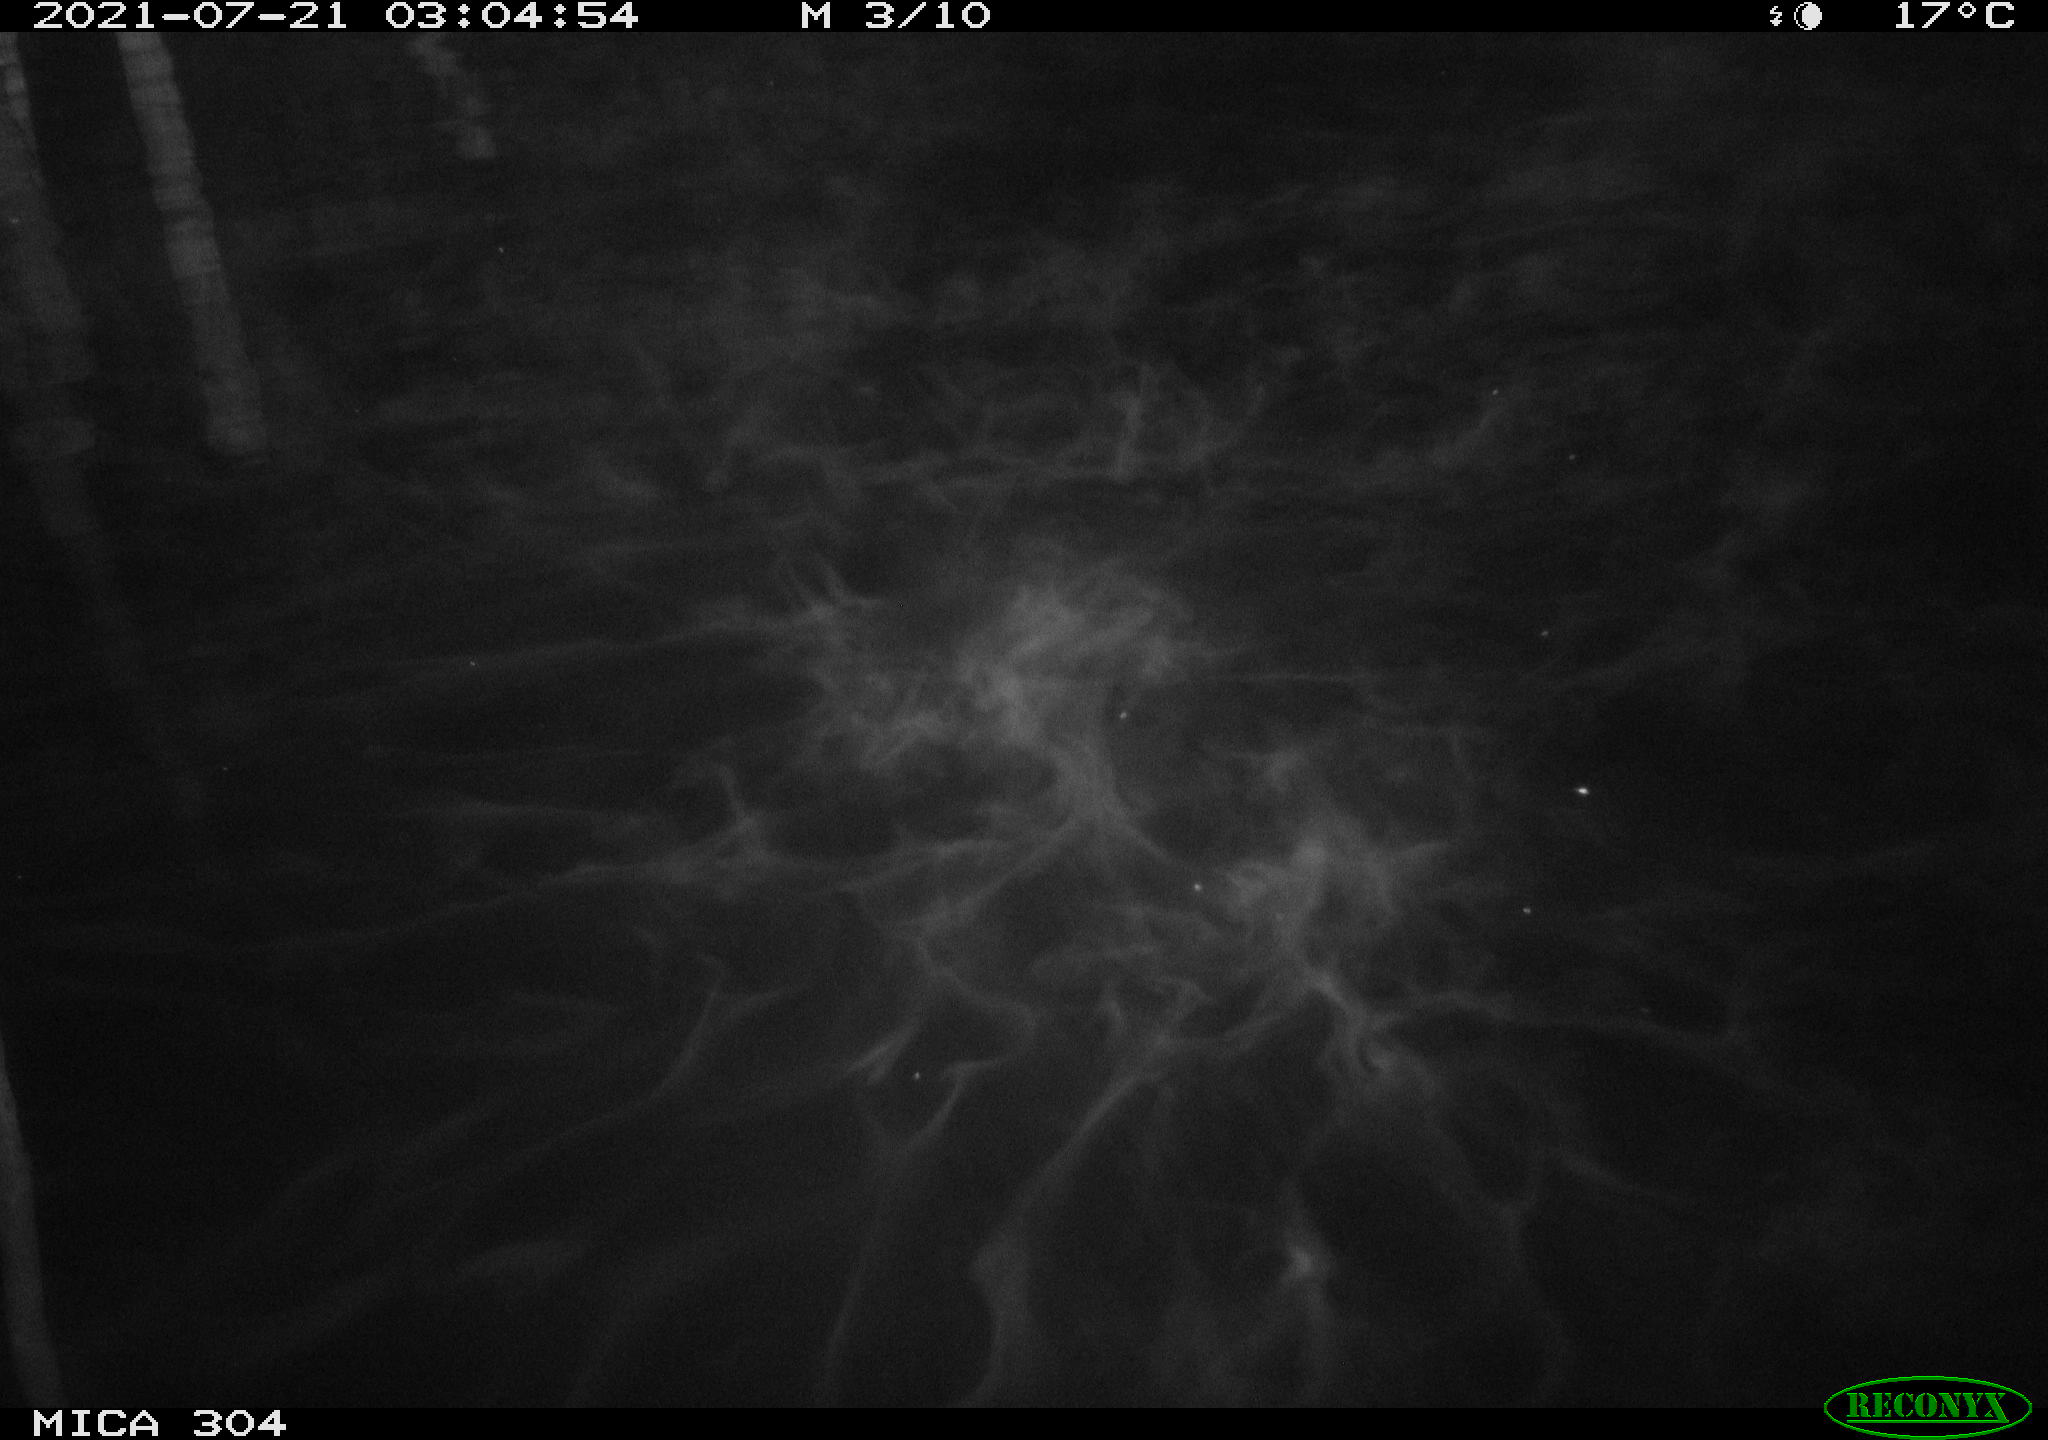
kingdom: Animalia
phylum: Chordata
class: Mammalia
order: Rodentia
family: Cricetidae
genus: Ondatra
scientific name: Ondatra zibethicus
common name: Muskrat
